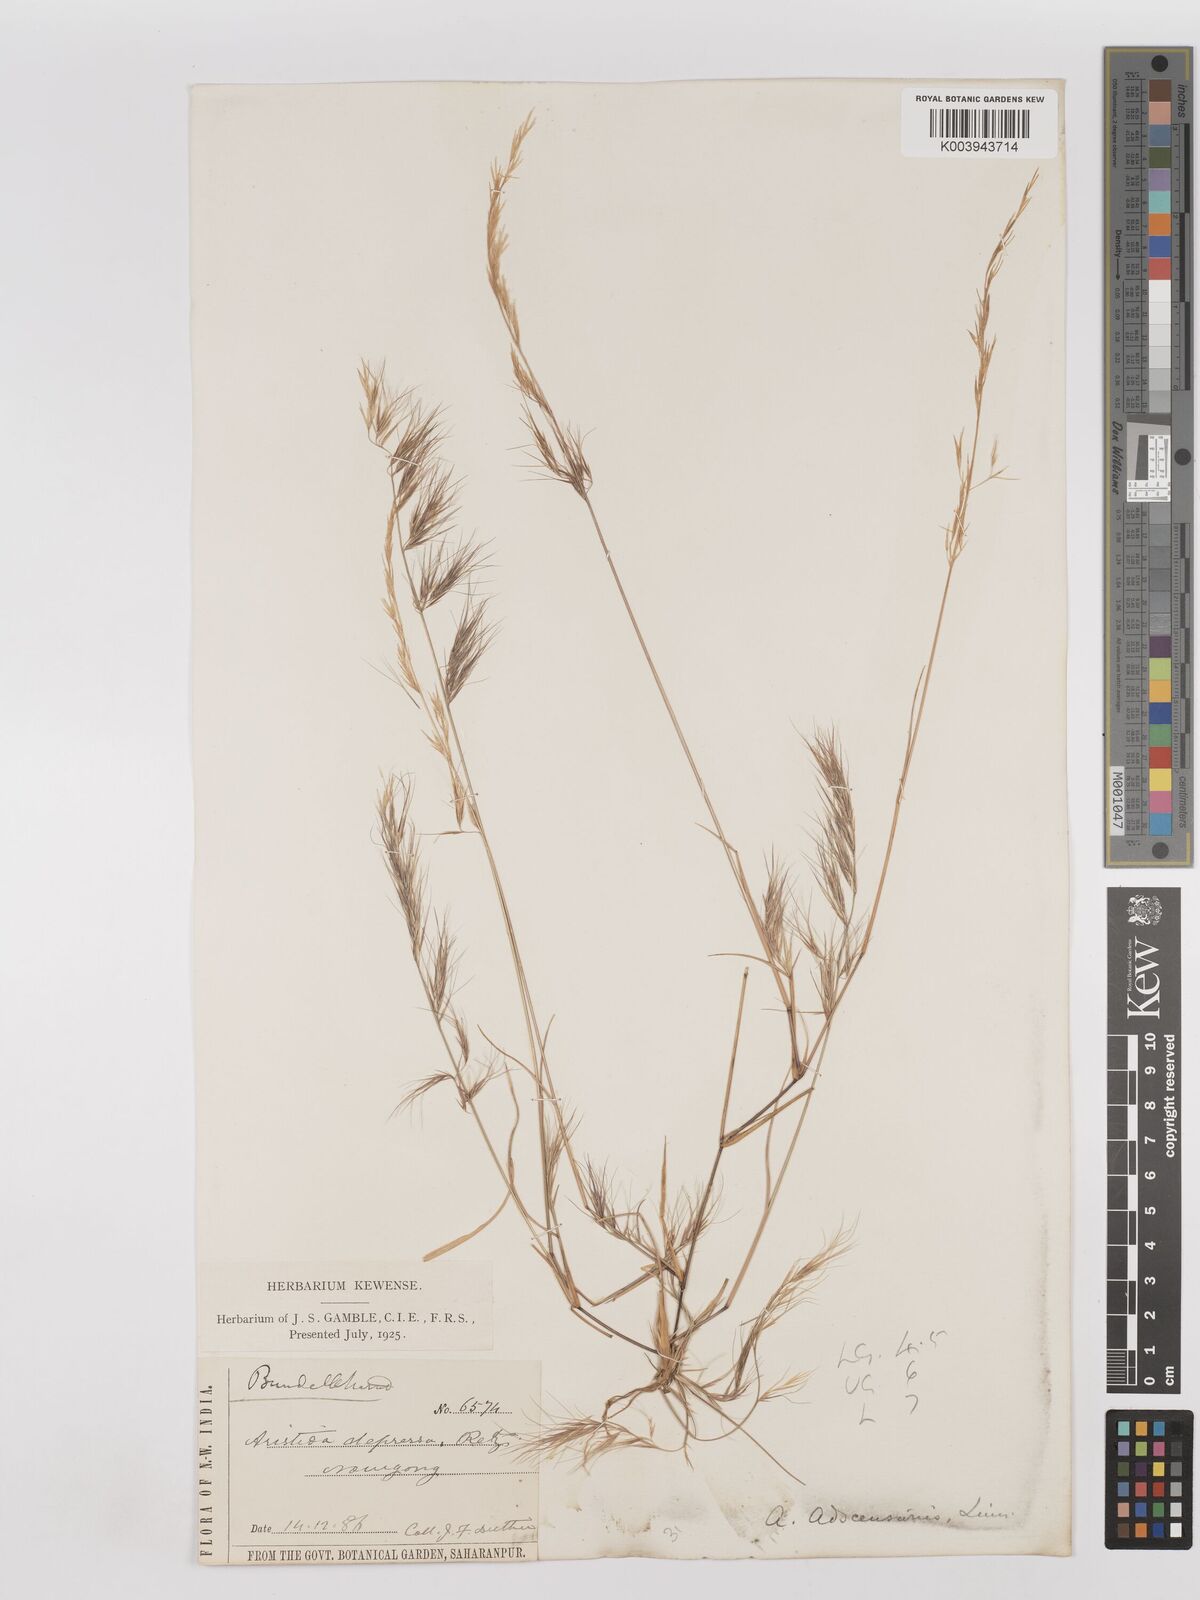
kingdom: Plantae
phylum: Tracheophyta
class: Liliopsida
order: Poales
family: Poaceae
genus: Aristida
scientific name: Aristida adscensionis
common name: Sixweeks threeawn
